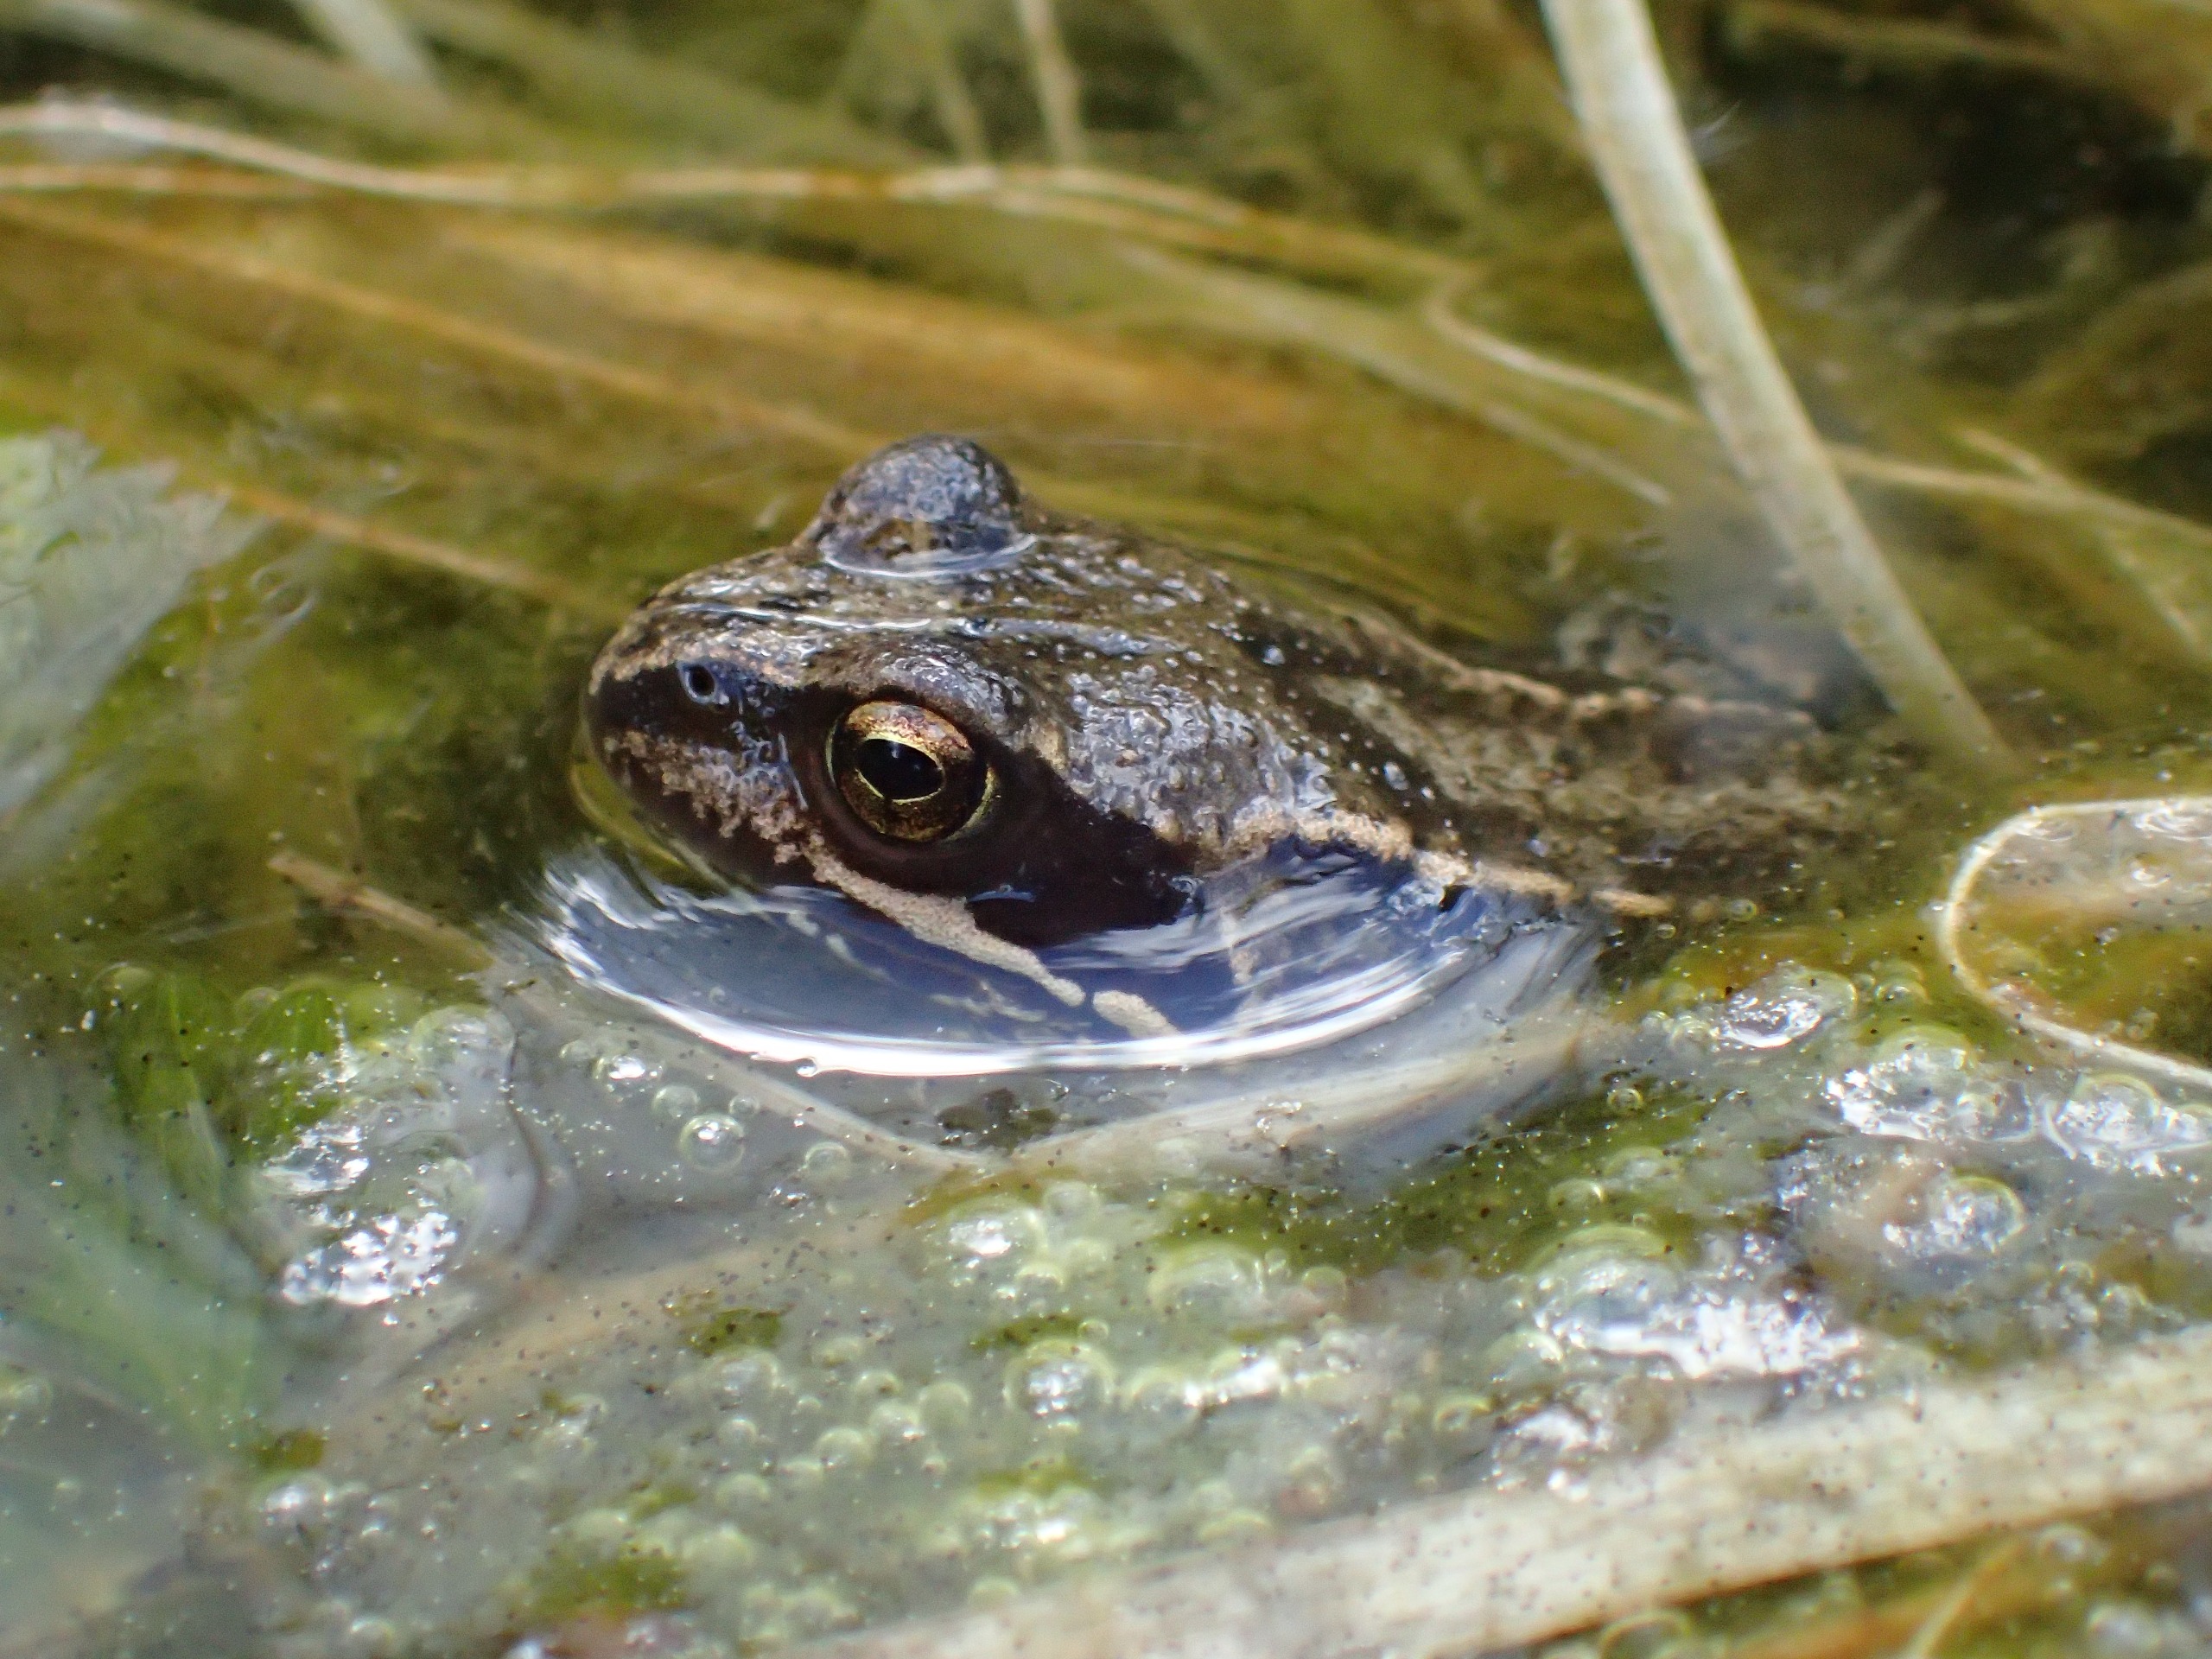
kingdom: Animalia
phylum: Chordata
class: Amphibia
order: Anura
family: Ranidae
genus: Rana
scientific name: Rana temporaria
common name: Butsnudet frø
